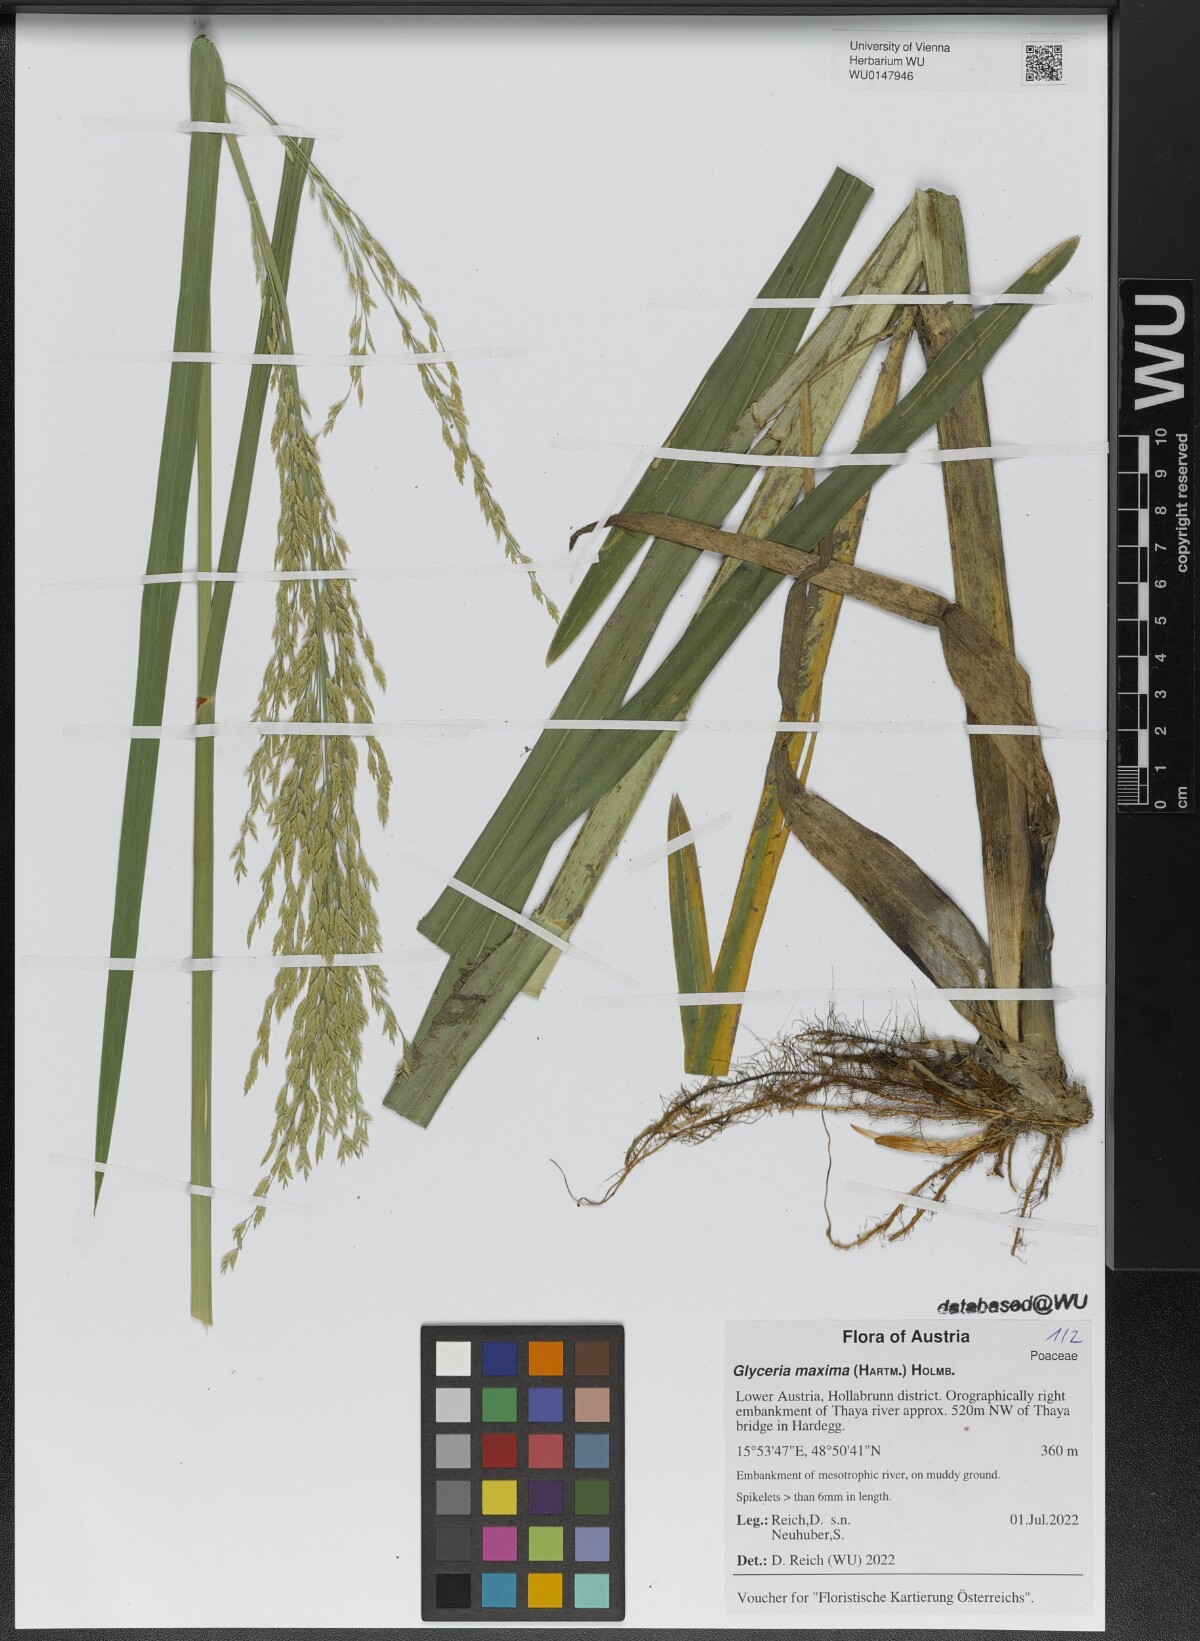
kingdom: Plantae
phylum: Tracheophyta
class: Liliopsida
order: Poales
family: Poaceae
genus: Glyceria
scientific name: Glyceria maxima
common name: Reed mannagrass
